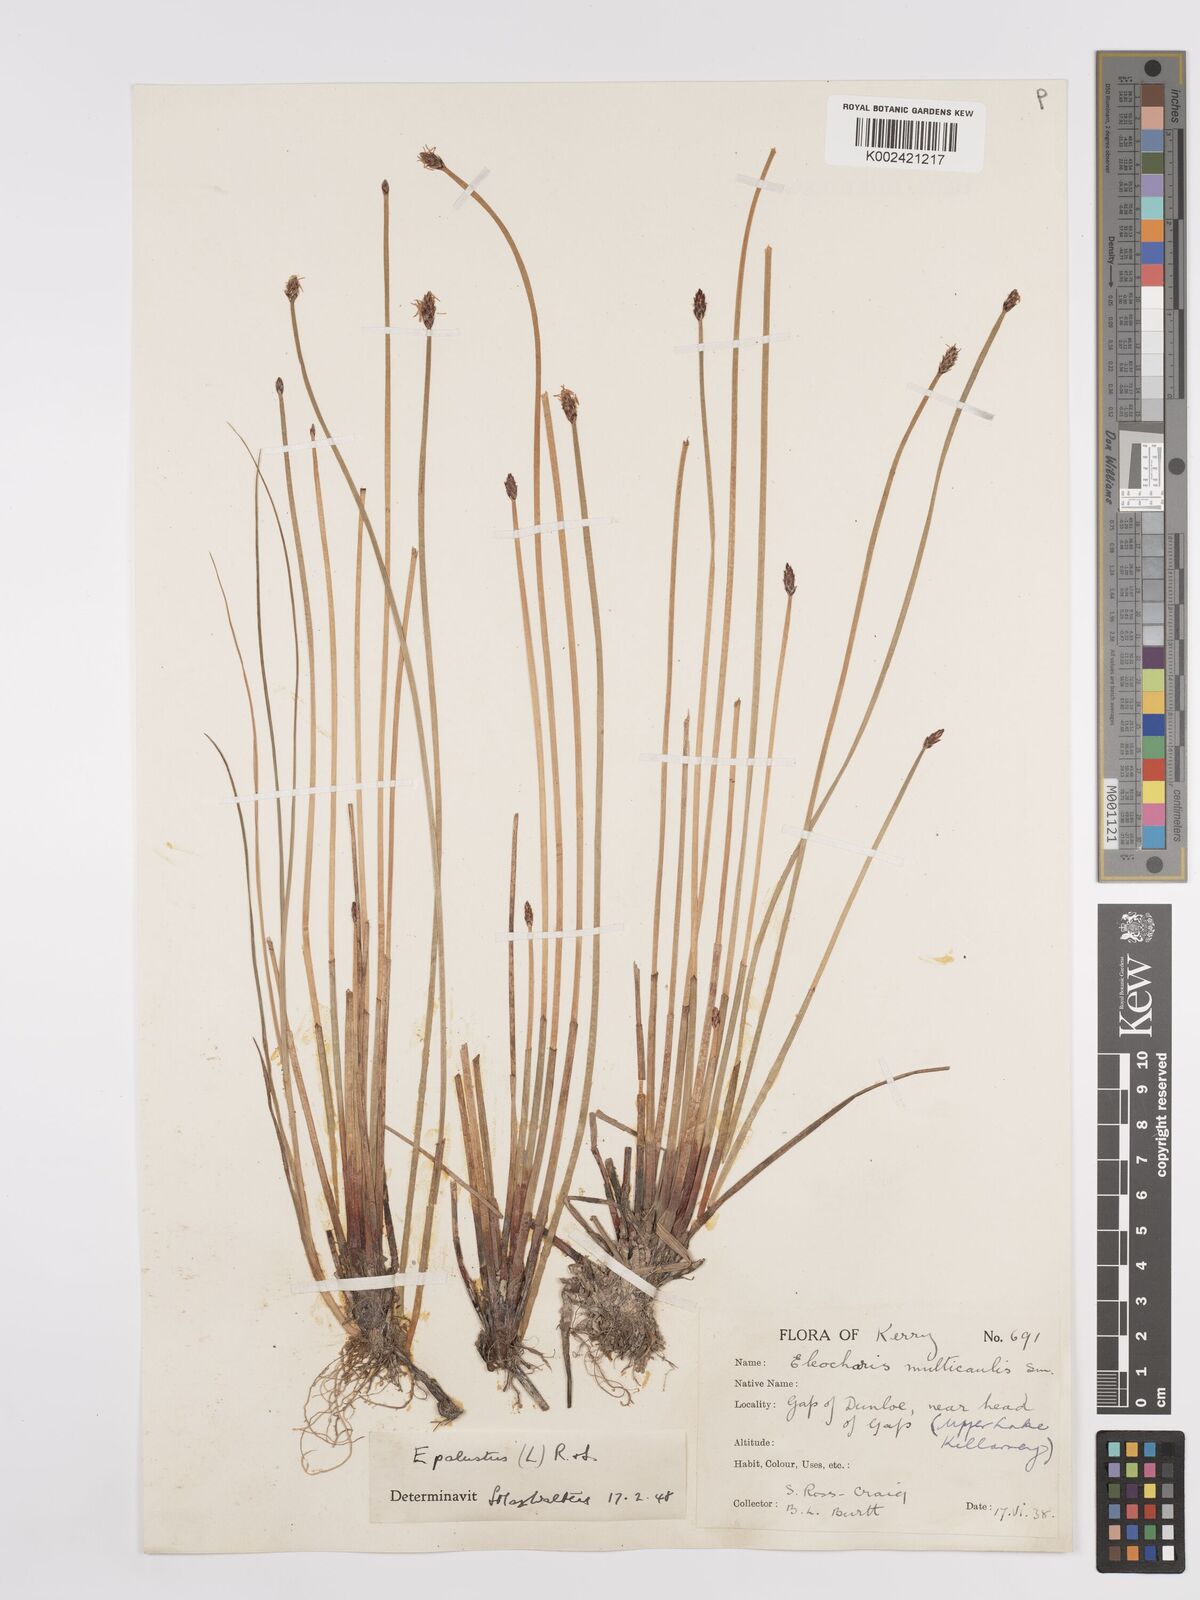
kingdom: Plantae
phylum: Tracheophyta
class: Liliopsida
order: Poales
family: Cyperaceae
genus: Eleocharis
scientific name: Eleocharis palustris
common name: Common spike-rush
